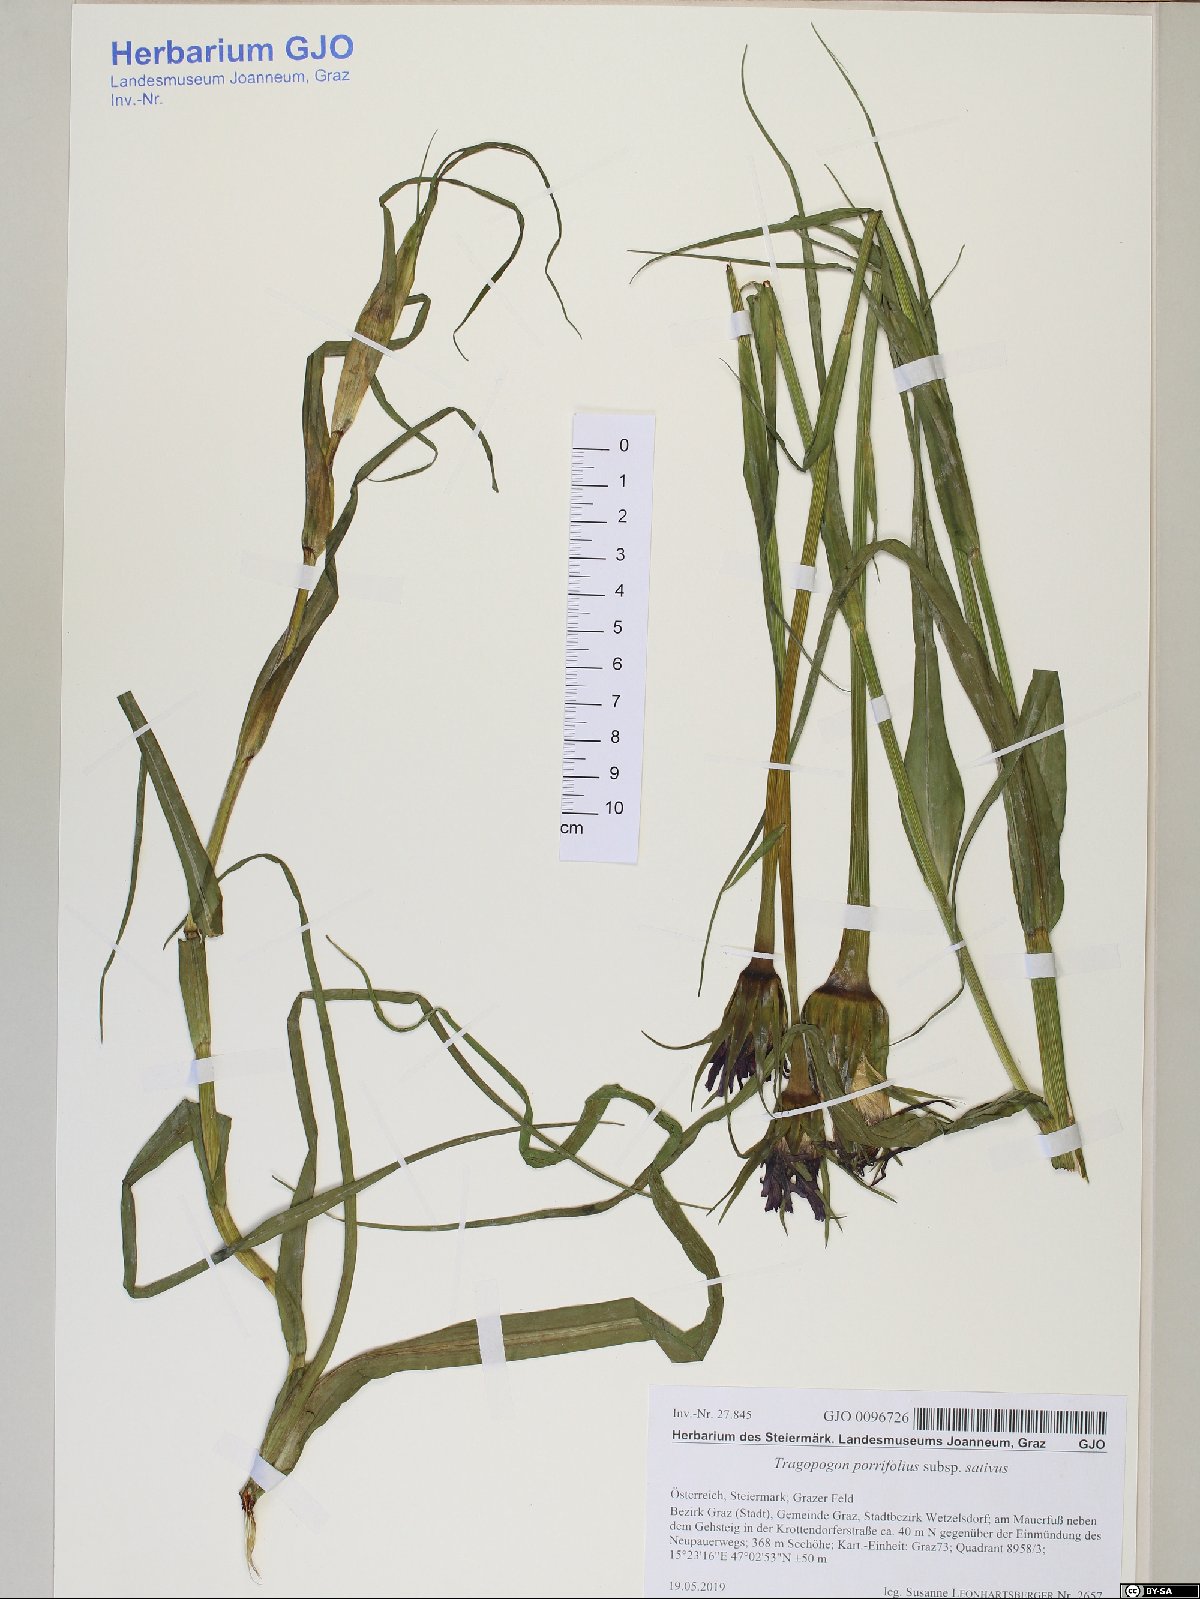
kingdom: Plantae
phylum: Tracheophyta
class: Magnoliopsida
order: Asterales
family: Asteraceae
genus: Tragopogon
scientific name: Tragopogon porrifolius
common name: Salsify
